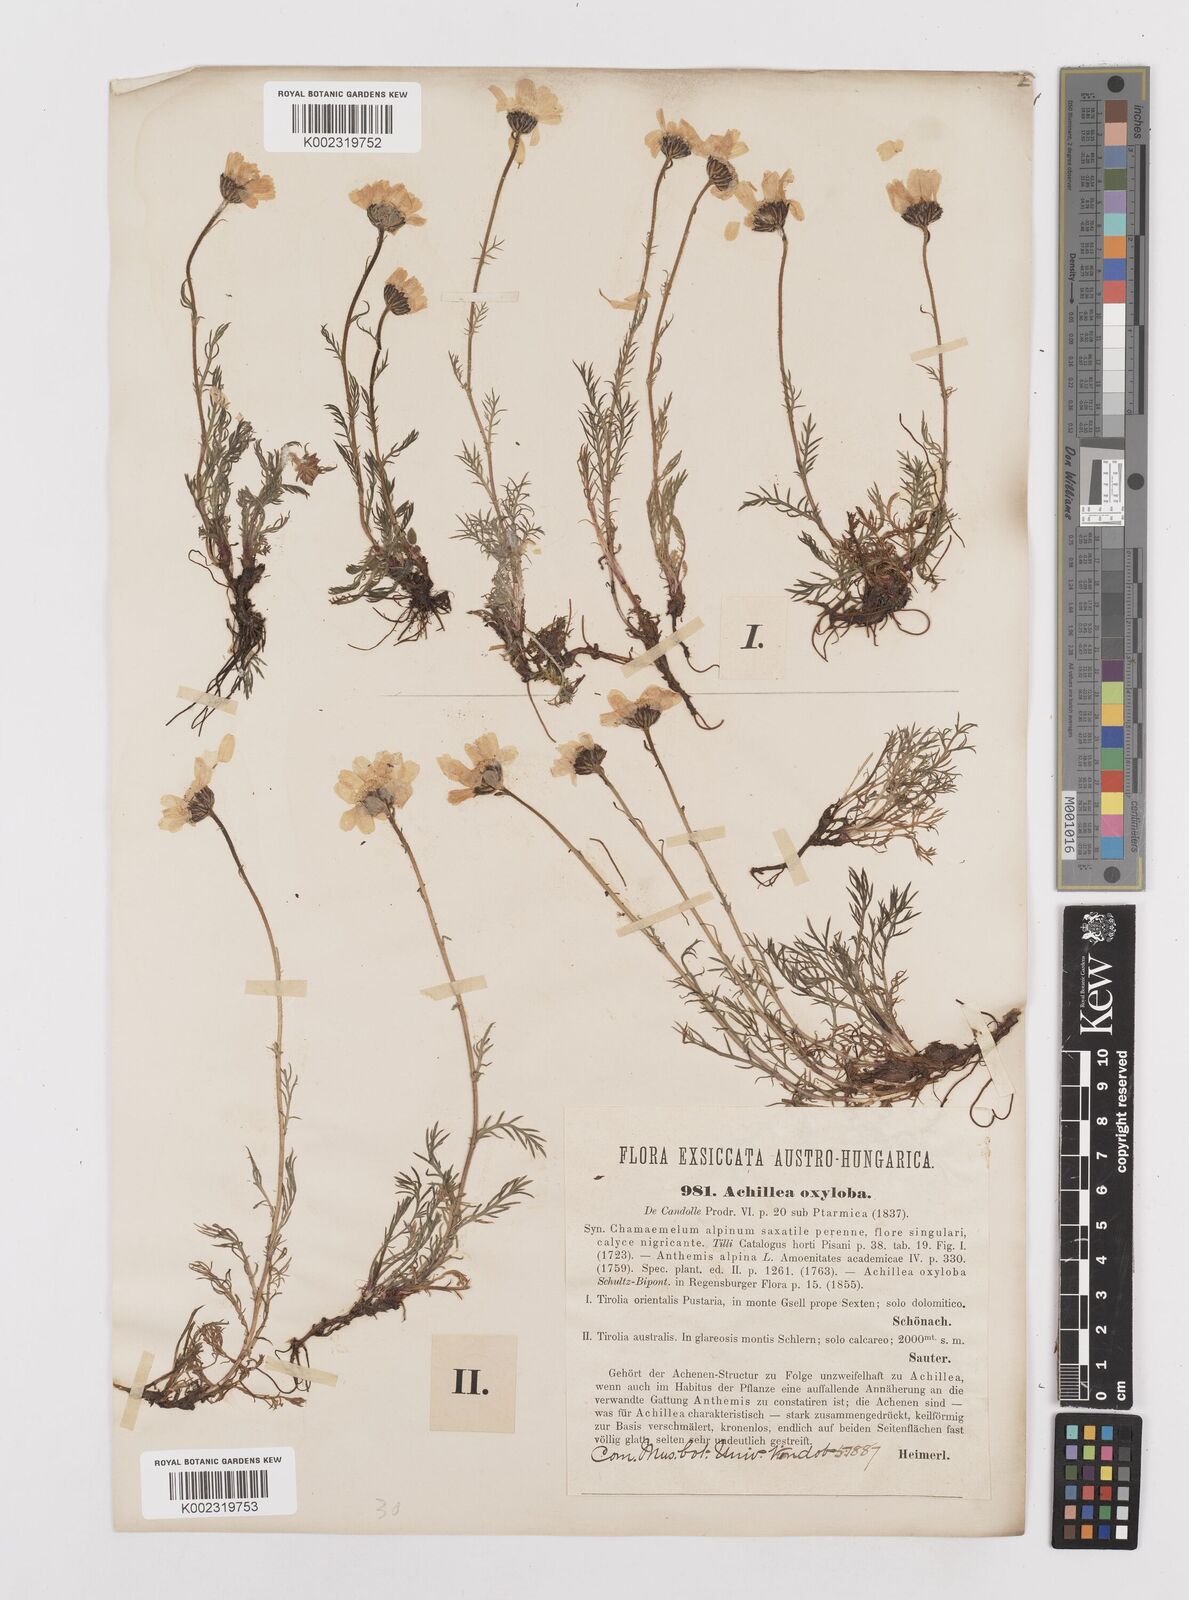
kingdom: Plantae
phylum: Tracheophyta
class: Magnoliopsida
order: Asterales
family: Asteraceae
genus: Achillea
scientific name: Achillea oxyloba
